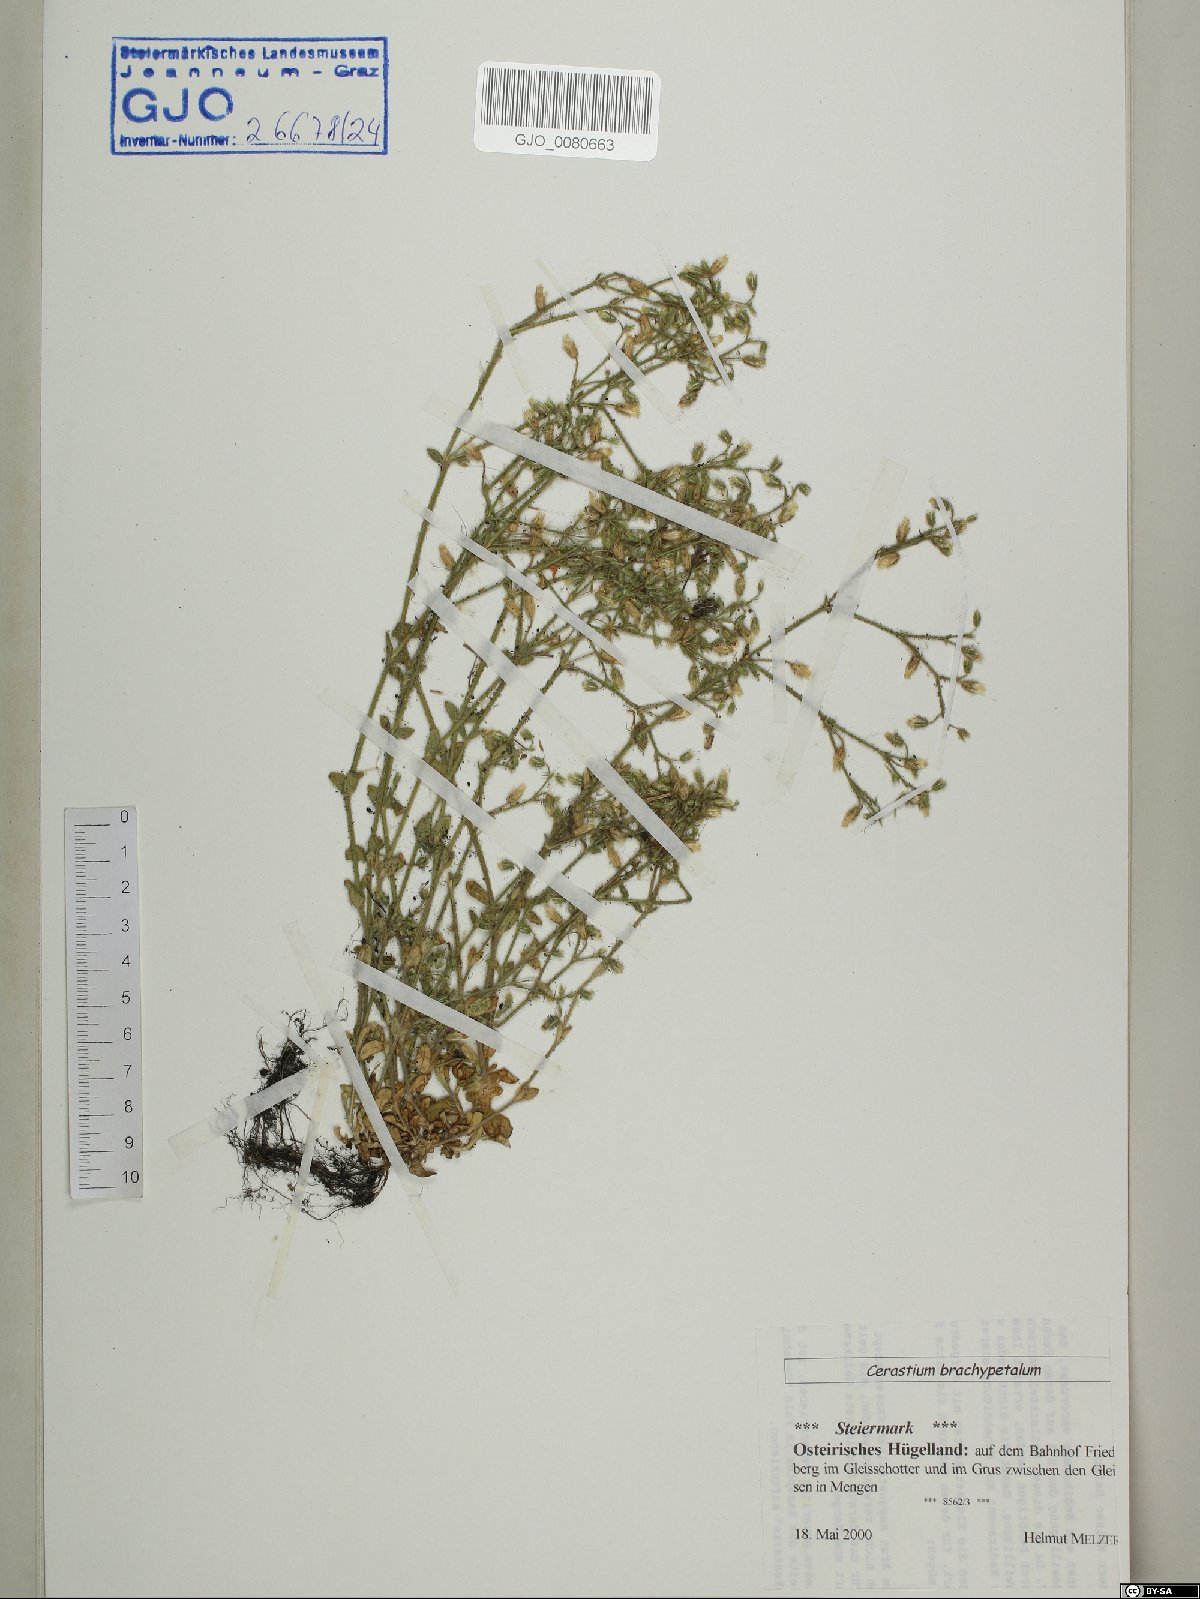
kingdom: Plantae
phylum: Tracheophyta
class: Magnoliopsida
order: Caryophyllales
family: Caryophyllaceae
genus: Cerastium
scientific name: Cerastium brachypetalum
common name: Grey mouse-ear
